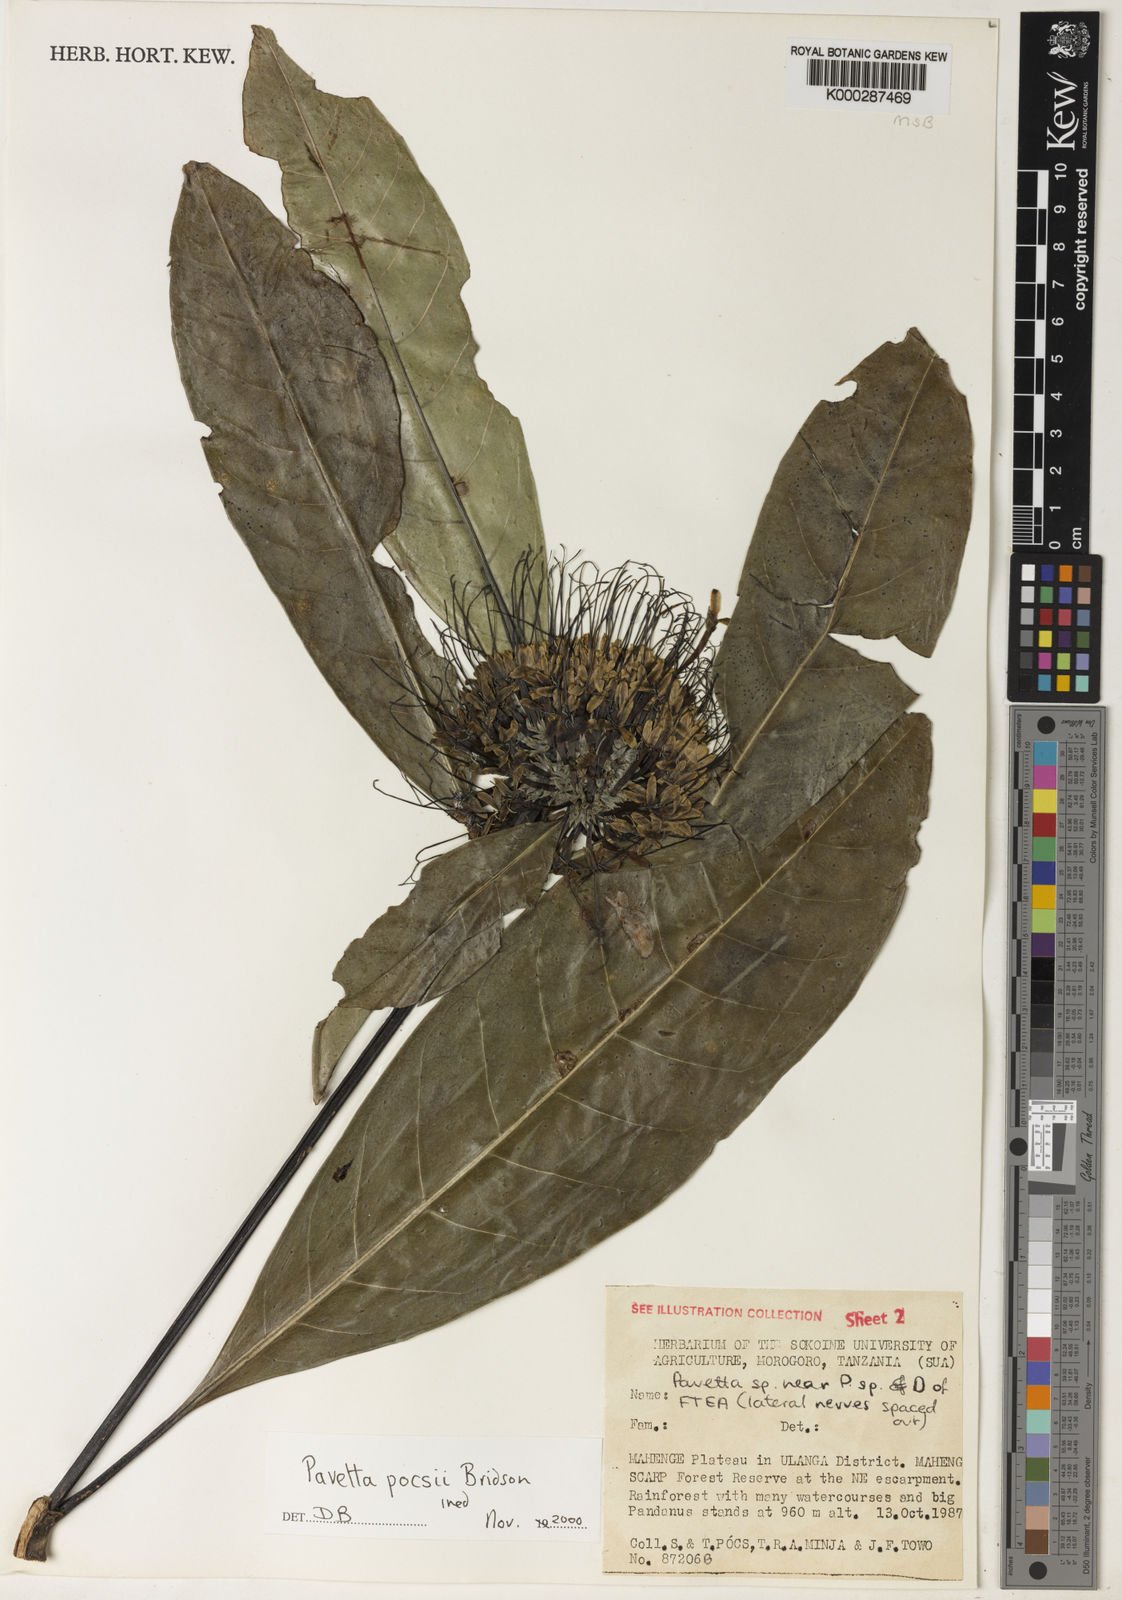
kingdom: Plantae
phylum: Tracheophyta
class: Magnoliopsida
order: Gentianales
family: Rubiaceae
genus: Pavetta
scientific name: Pavetta pocsii
